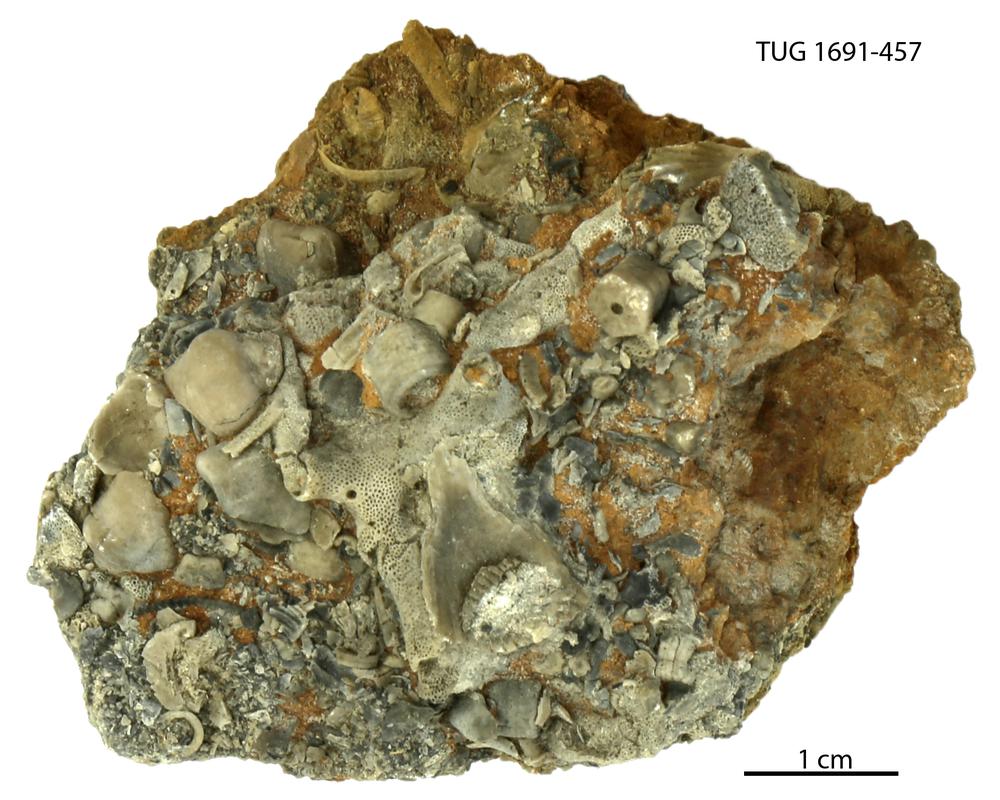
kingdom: Animalia
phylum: Bryozoa
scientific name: Bryozoa
